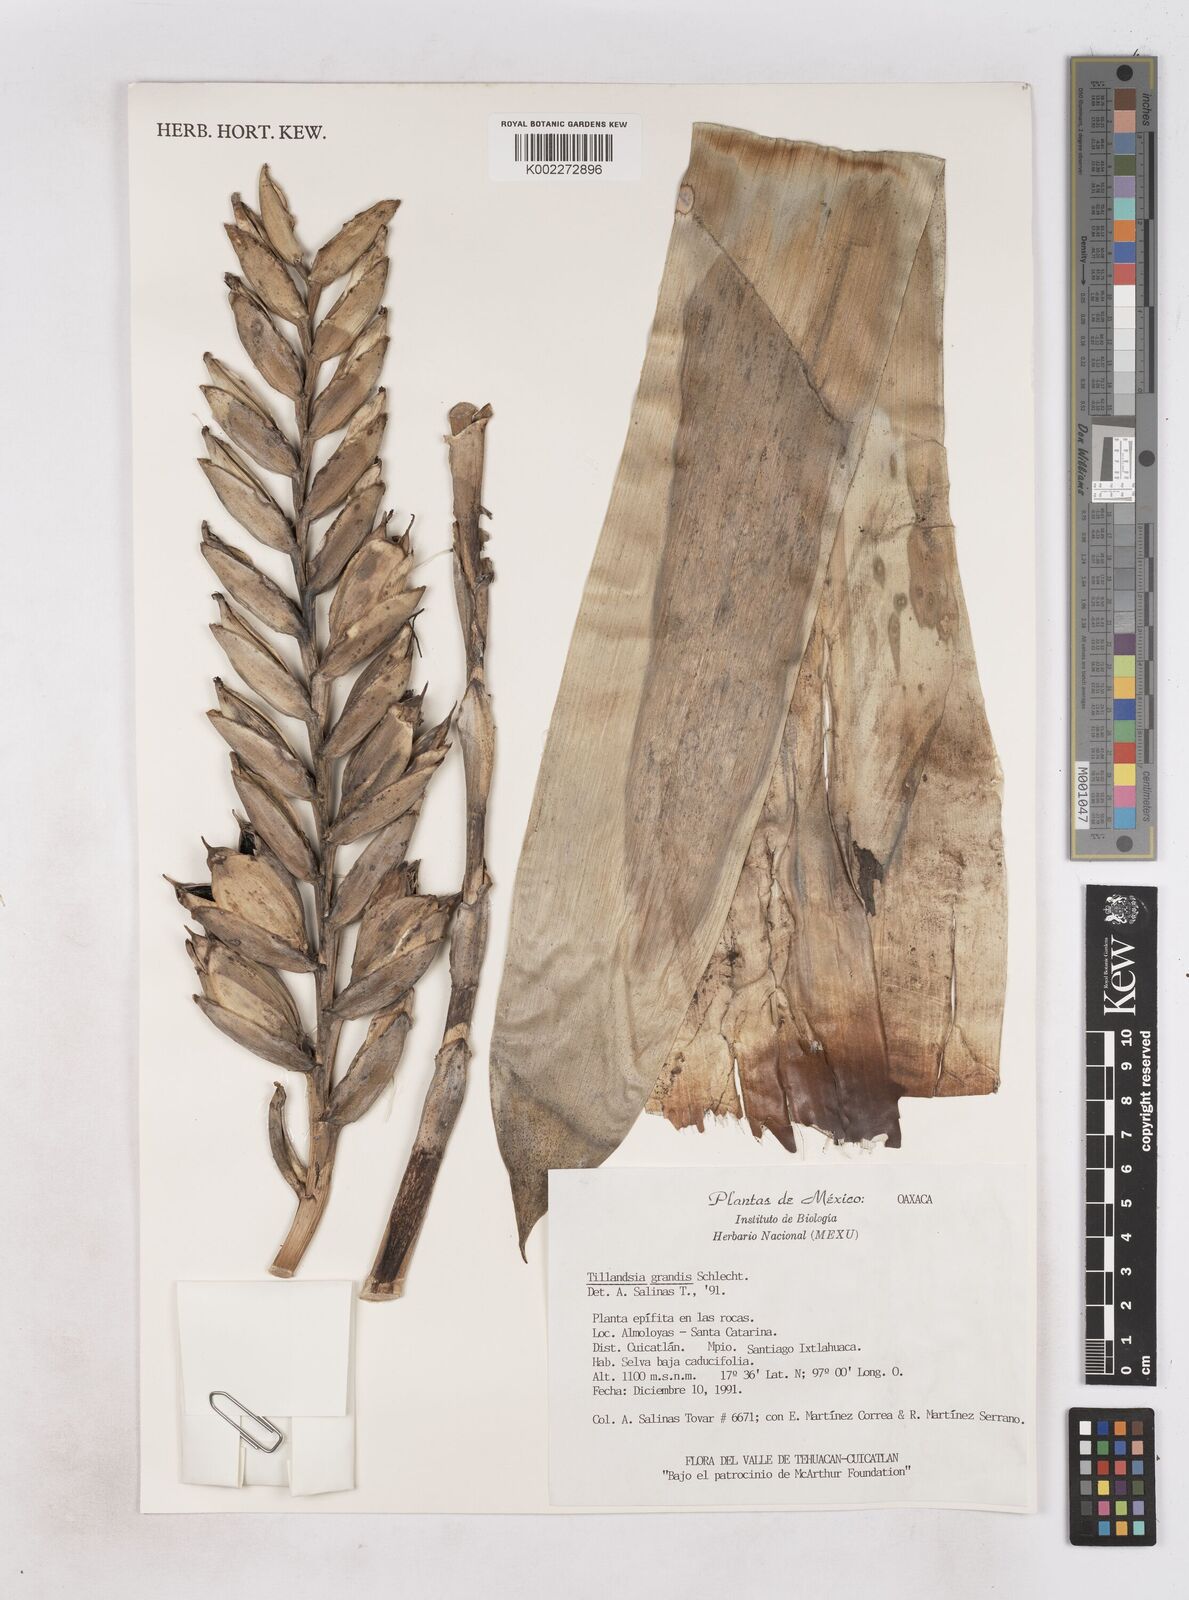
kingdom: Plantae
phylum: Tracheophyta
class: Liliopsida
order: Poales
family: Bromeliaceae
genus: Pseudalcantarea
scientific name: Pseudalcantarea grandis
